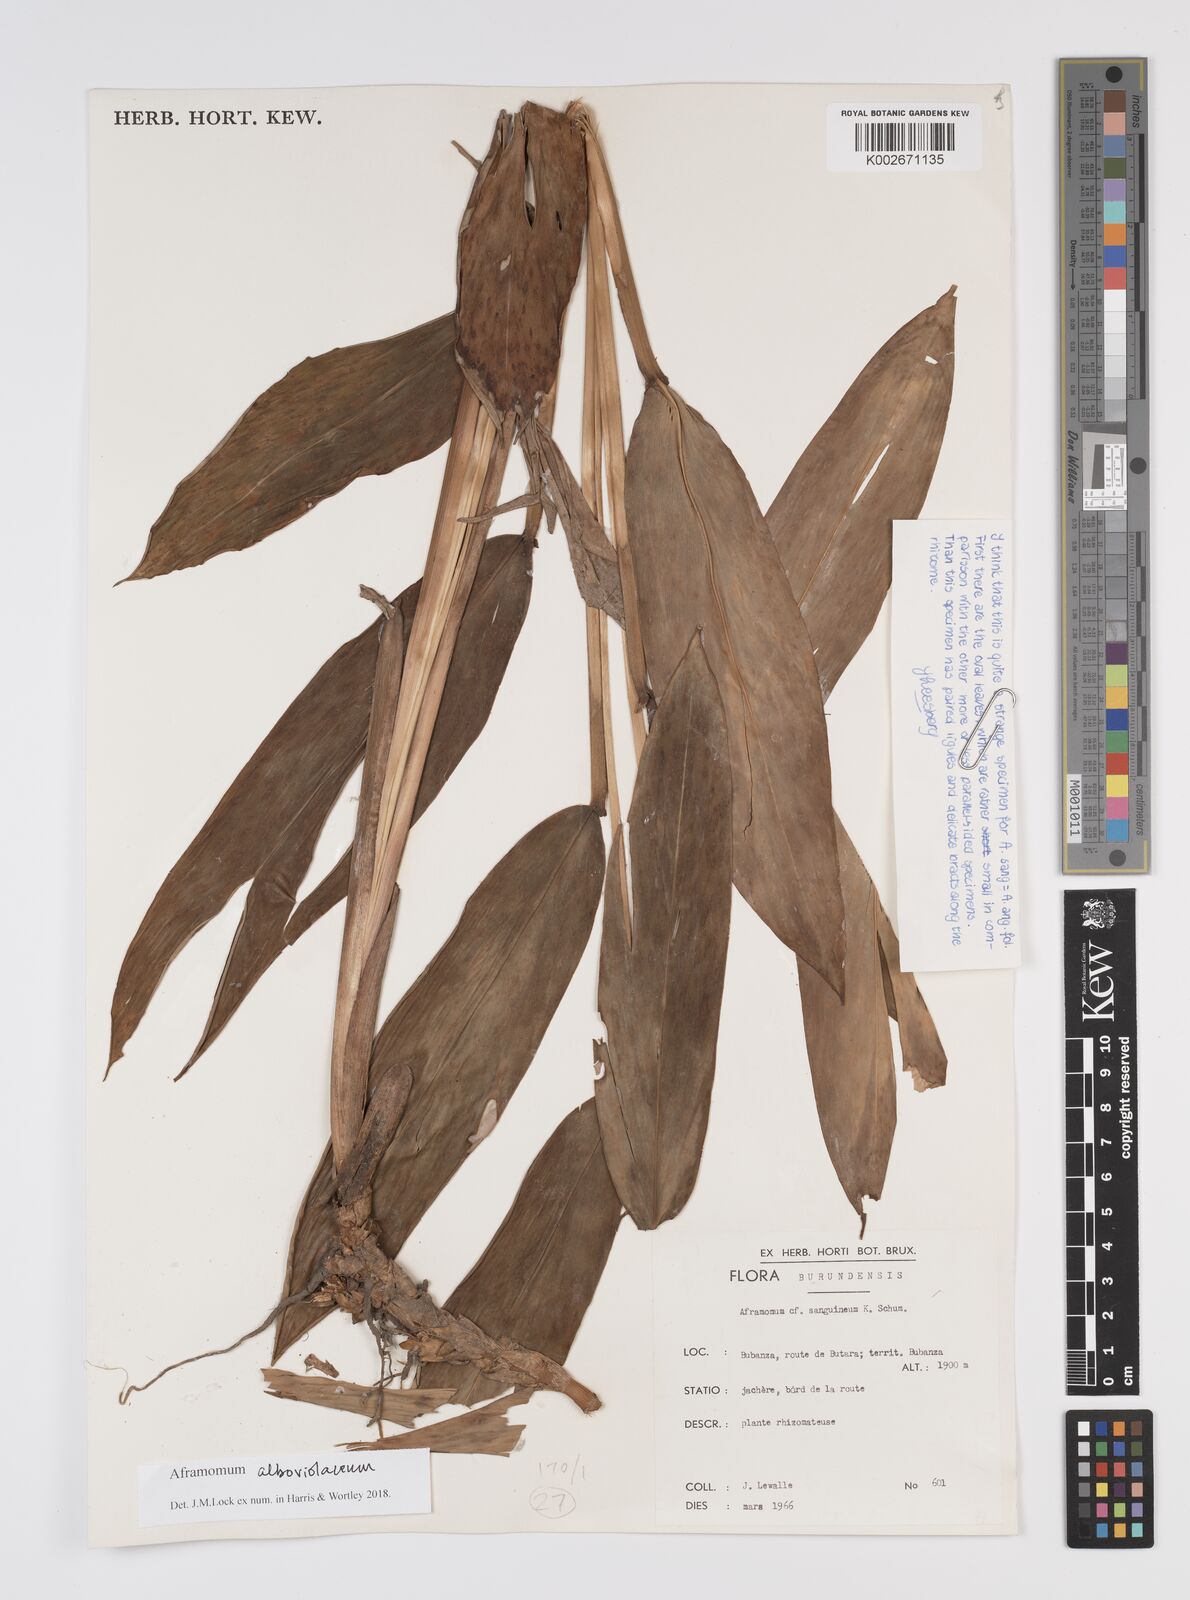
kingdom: Plantae
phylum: Tracheophyta
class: Liliopsida
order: Zingiberales
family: Zingiberaceae
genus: Aframomum
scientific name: Aframomum alboviolaceum
